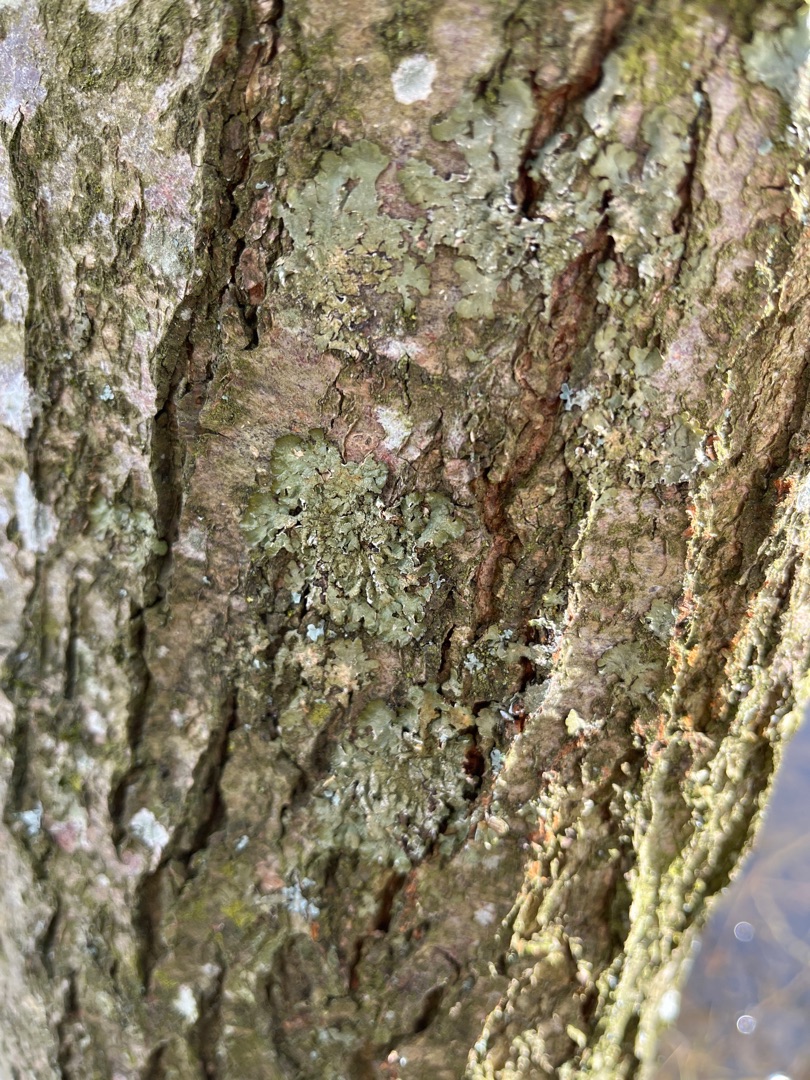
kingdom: Fungi
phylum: Ascomycota
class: Lecanoromycetes
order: Lecanorales
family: Parmeliaceae
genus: Melanelixia
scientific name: Melanelixia glabratula
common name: Glinsende skållav
